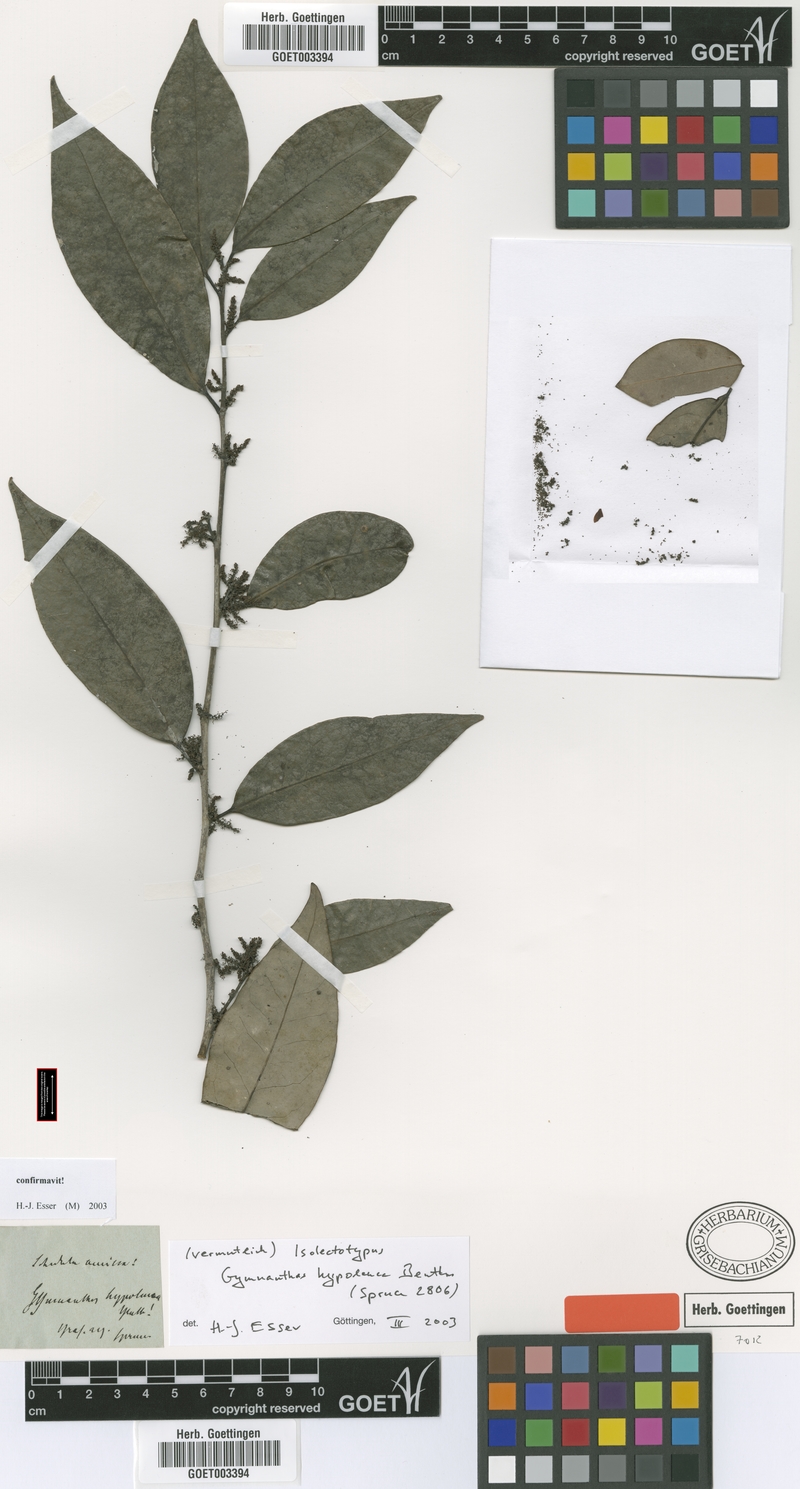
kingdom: Plantae
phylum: Tracheophyta
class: Magnoliopsida
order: Malpighiales
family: Euphorbiaceae
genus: Gymnanthes
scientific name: Gymnanthes hypoleuca
